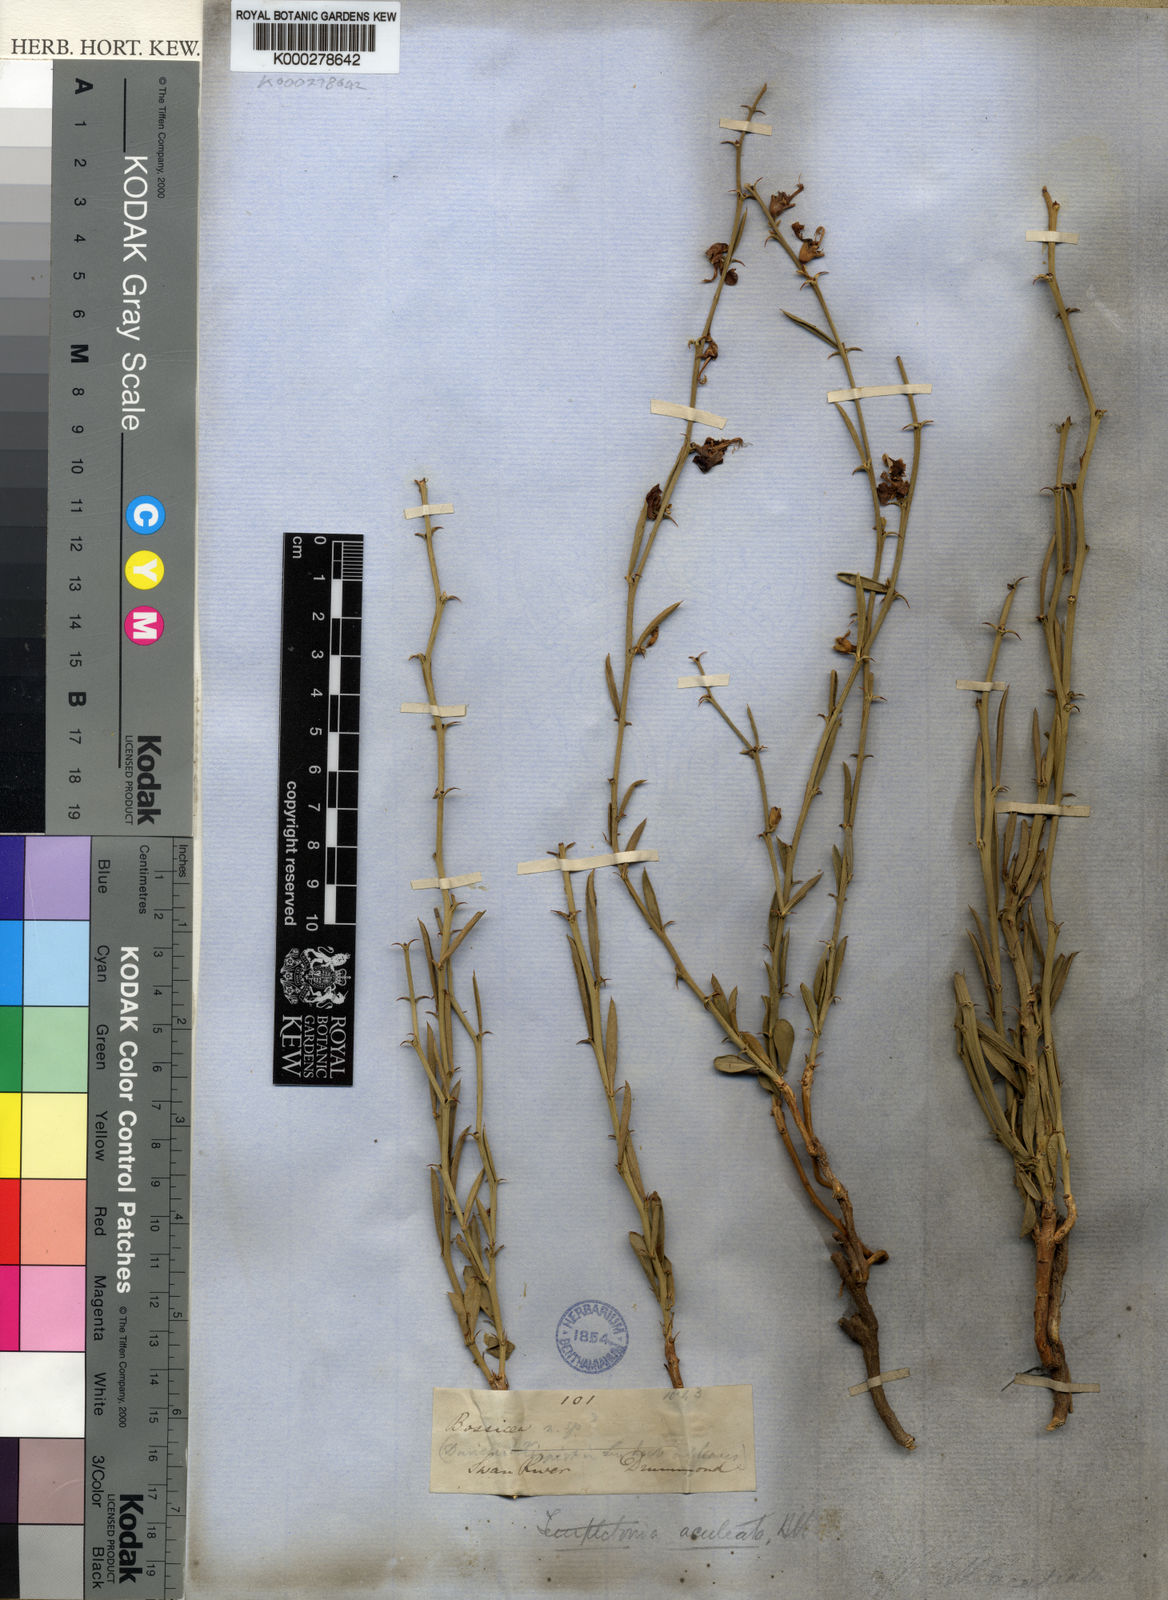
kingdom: Plantae
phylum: Tracheophyta
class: Magnoliopsida
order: Fabales
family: Fabaceae
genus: Templetonia
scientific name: Templetonia aculeata
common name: Spiny mallee pea
